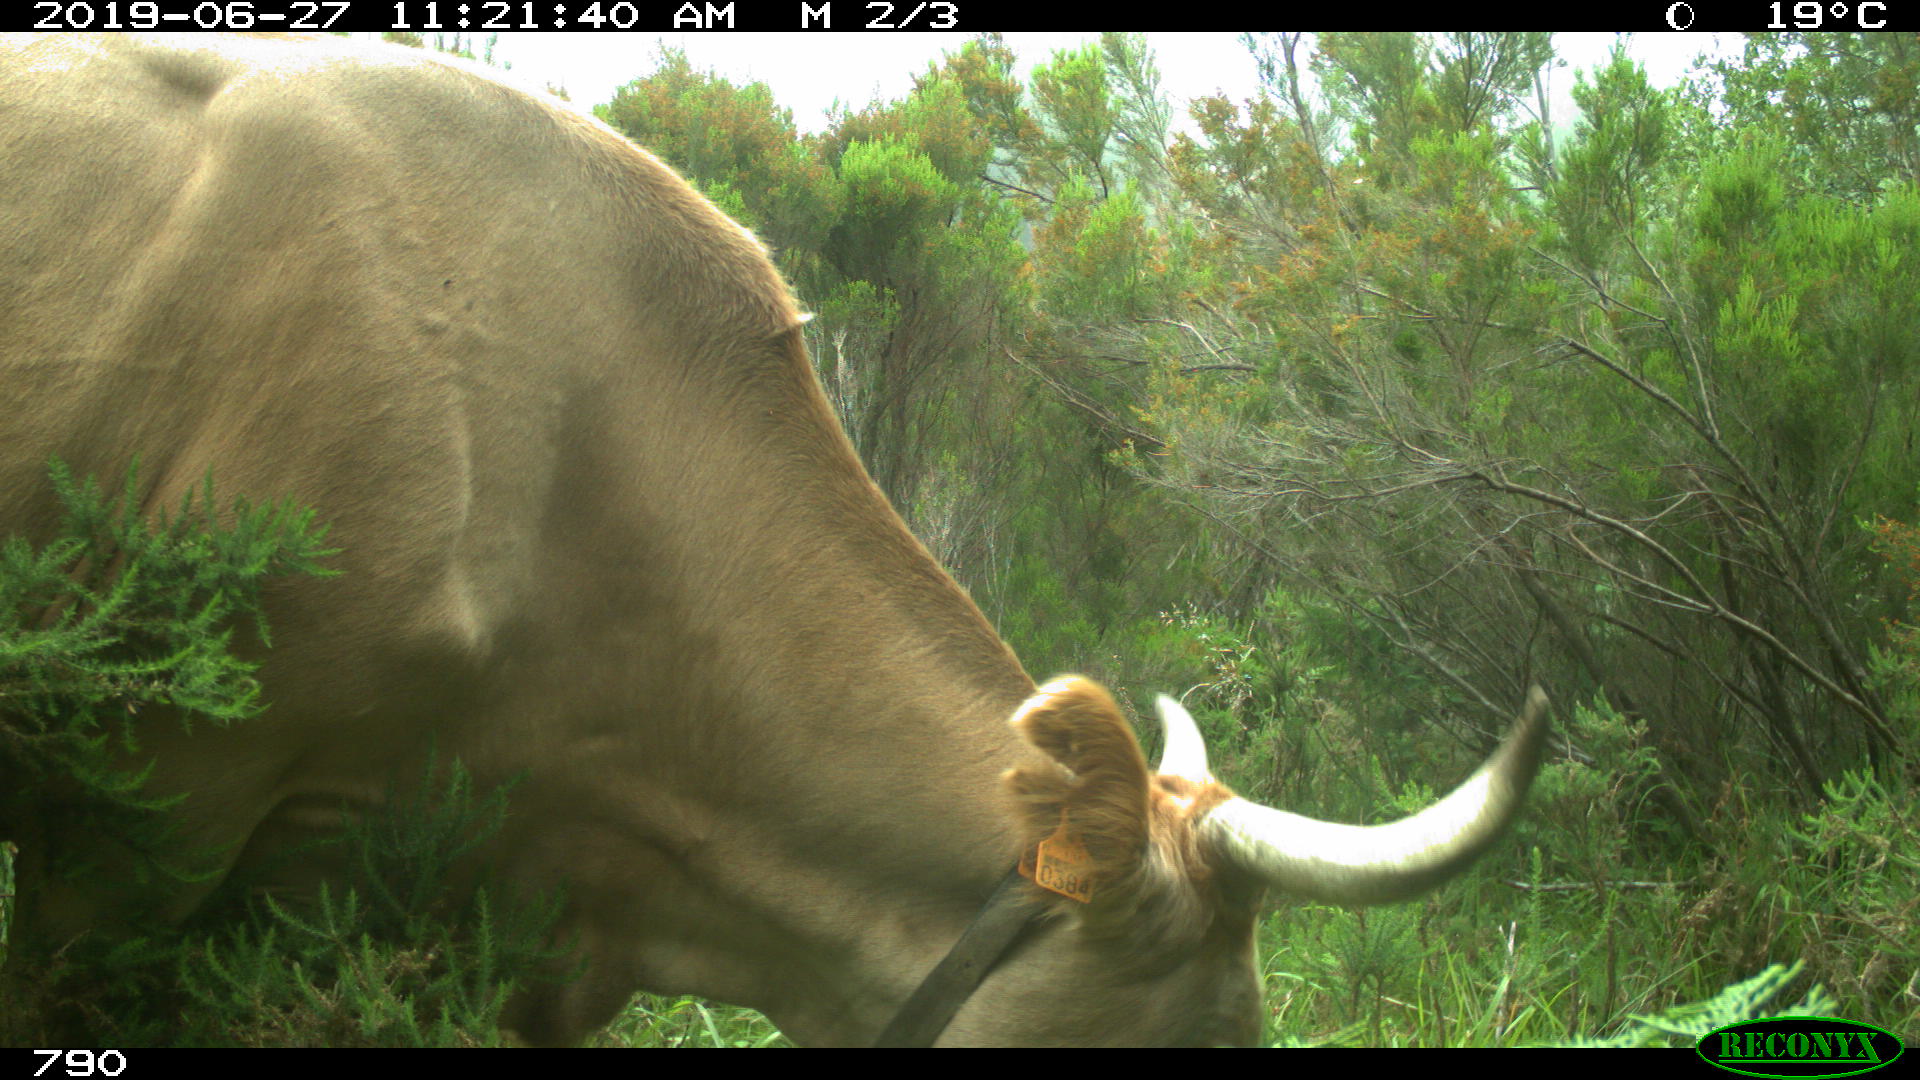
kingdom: Animalia
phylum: Chordata
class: Mammalia
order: Artiodactyla
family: Bovidae
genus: Bos
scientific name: Bos taurus
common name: Domesticated cattle
